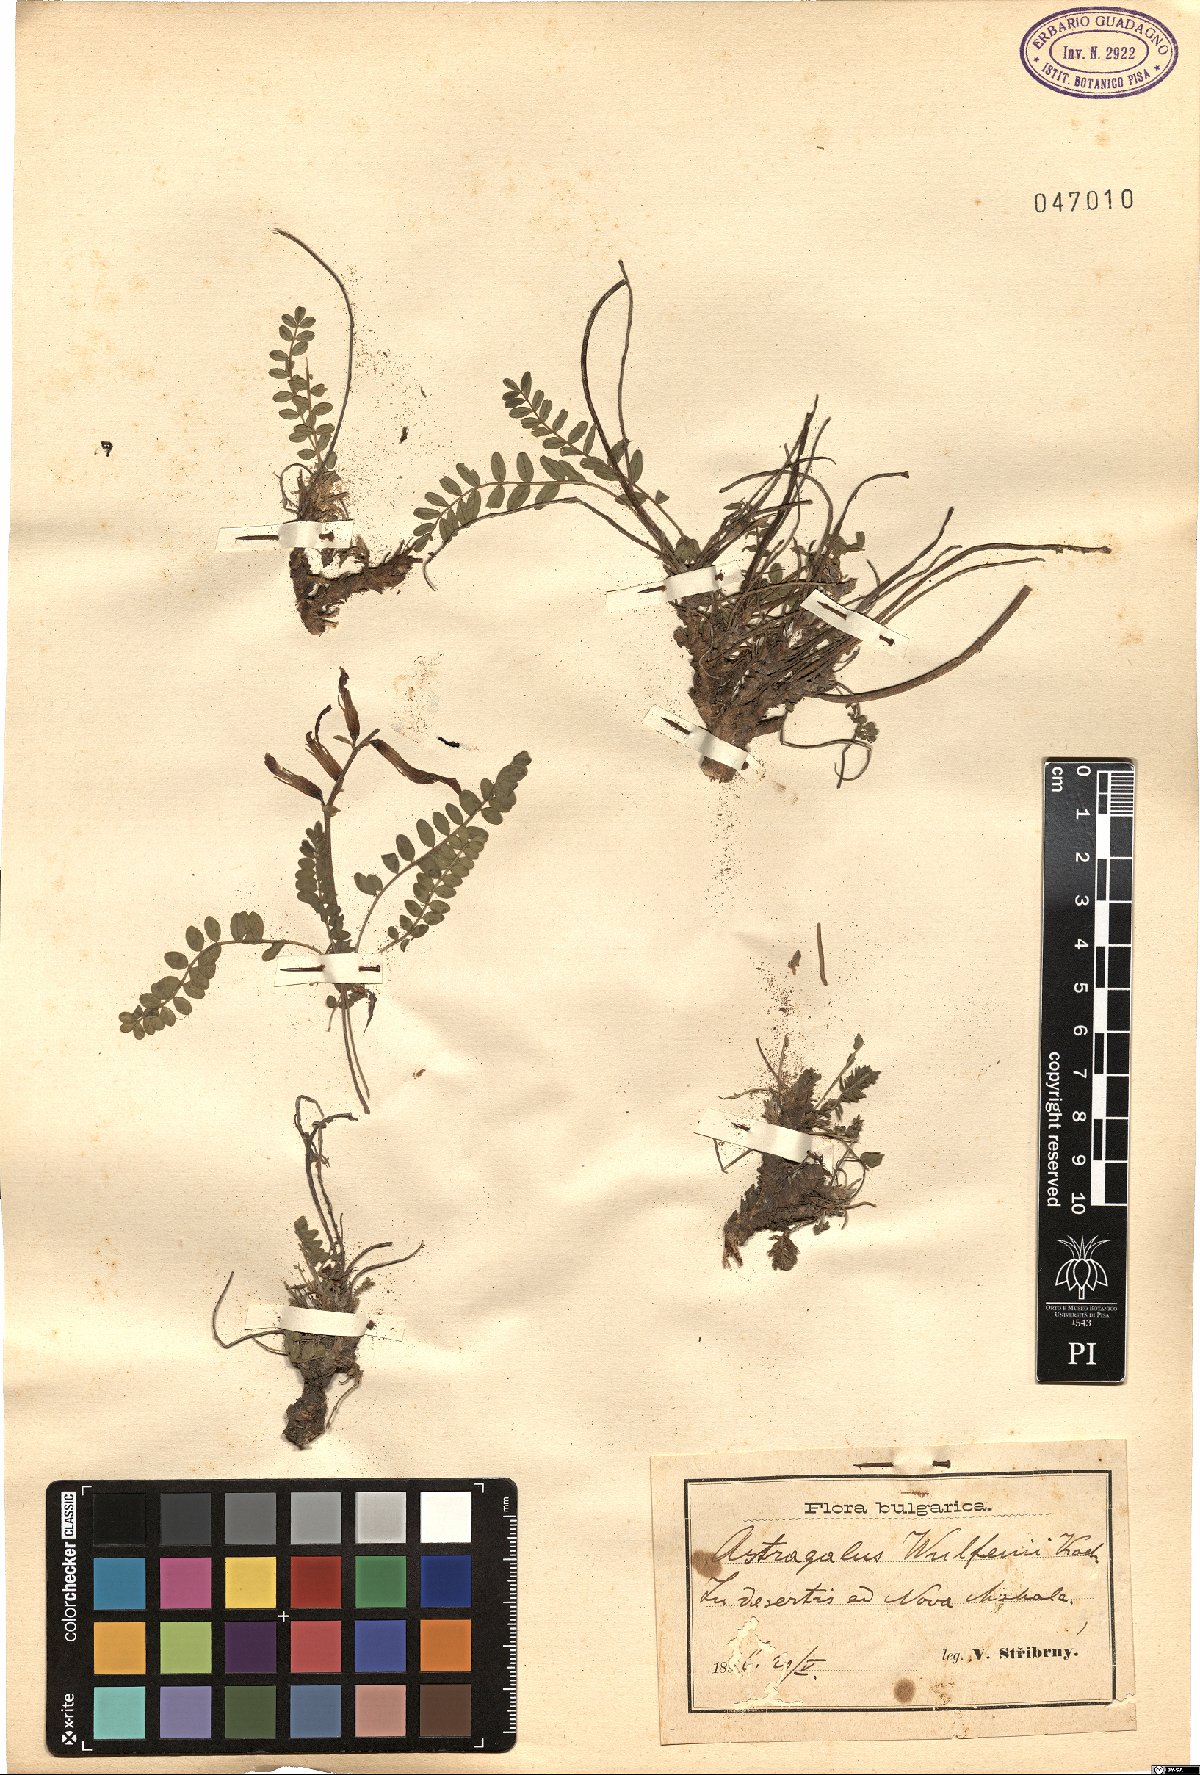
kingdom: Plantae
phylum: Tracheophyta
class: Magnoliopsida
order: Fabales
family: Fabaceae
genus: Astragalus
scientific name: Astragalus monspessulanus
